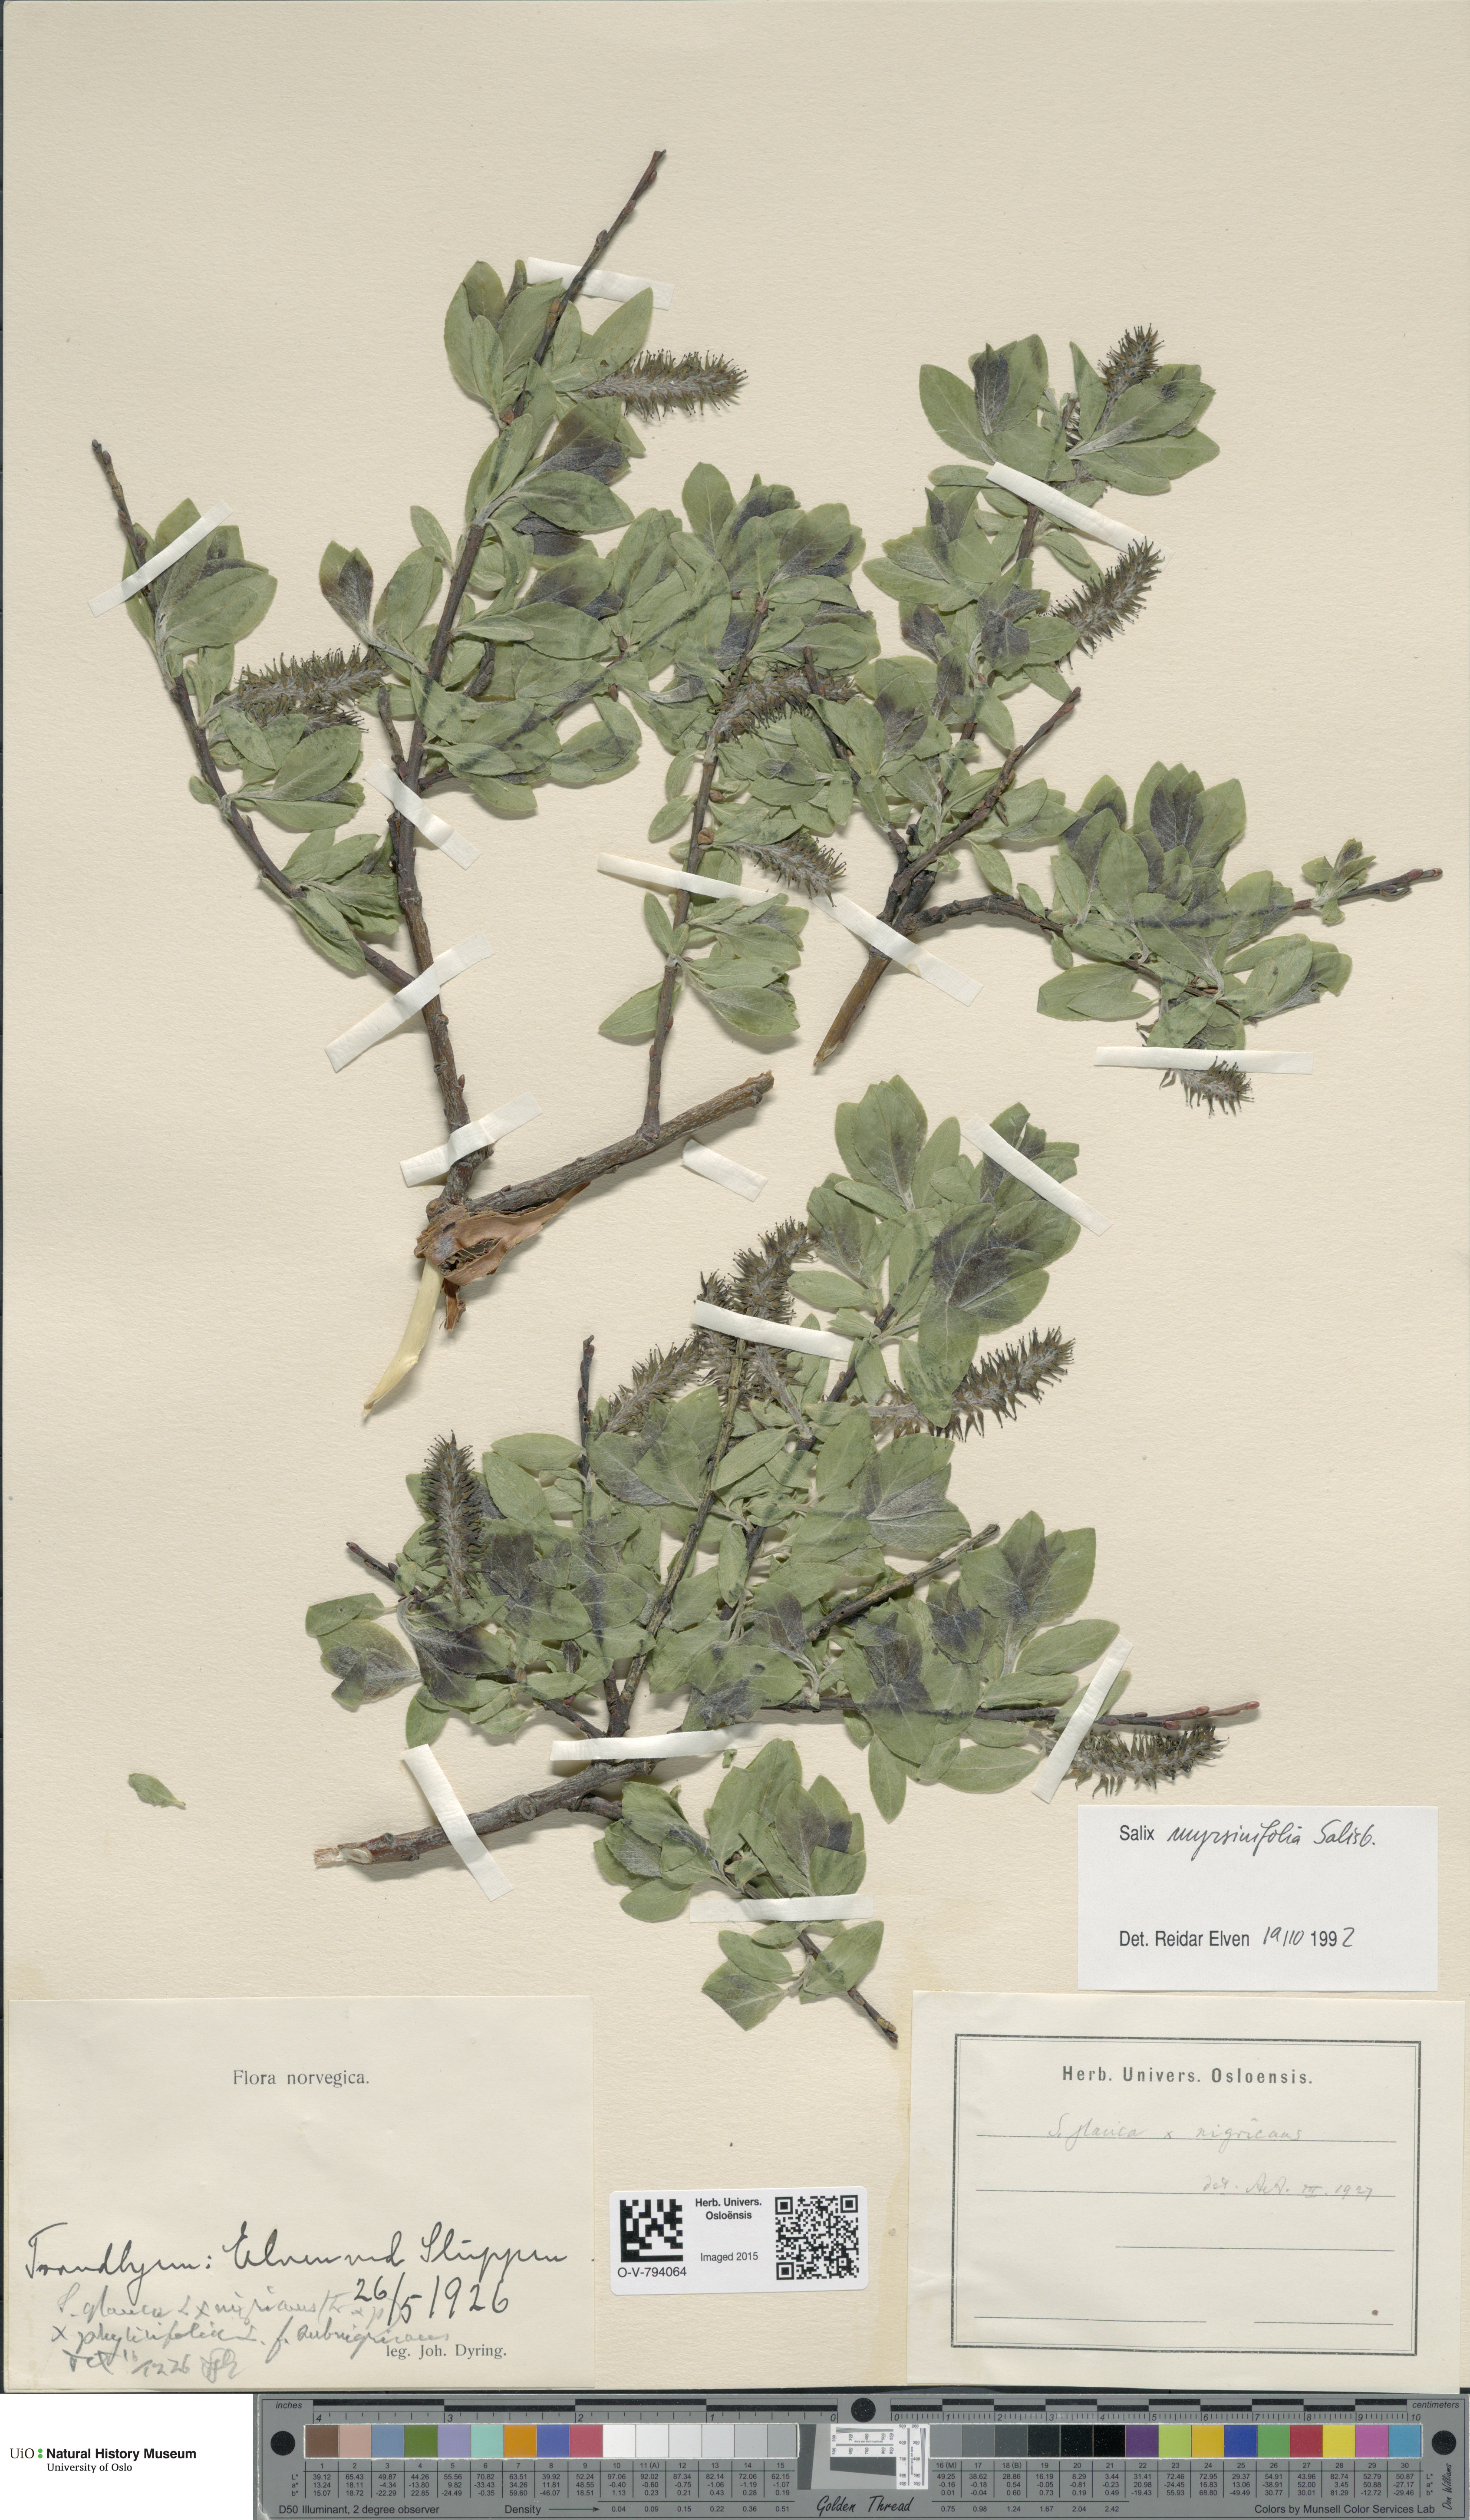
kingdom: Plantae
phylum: Tracheophyta
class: Magnoliopsida
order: Malpighiales
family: Salicaceae
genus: Salix
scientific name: Salix myrsinifolia
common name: Dark-leaved willow
